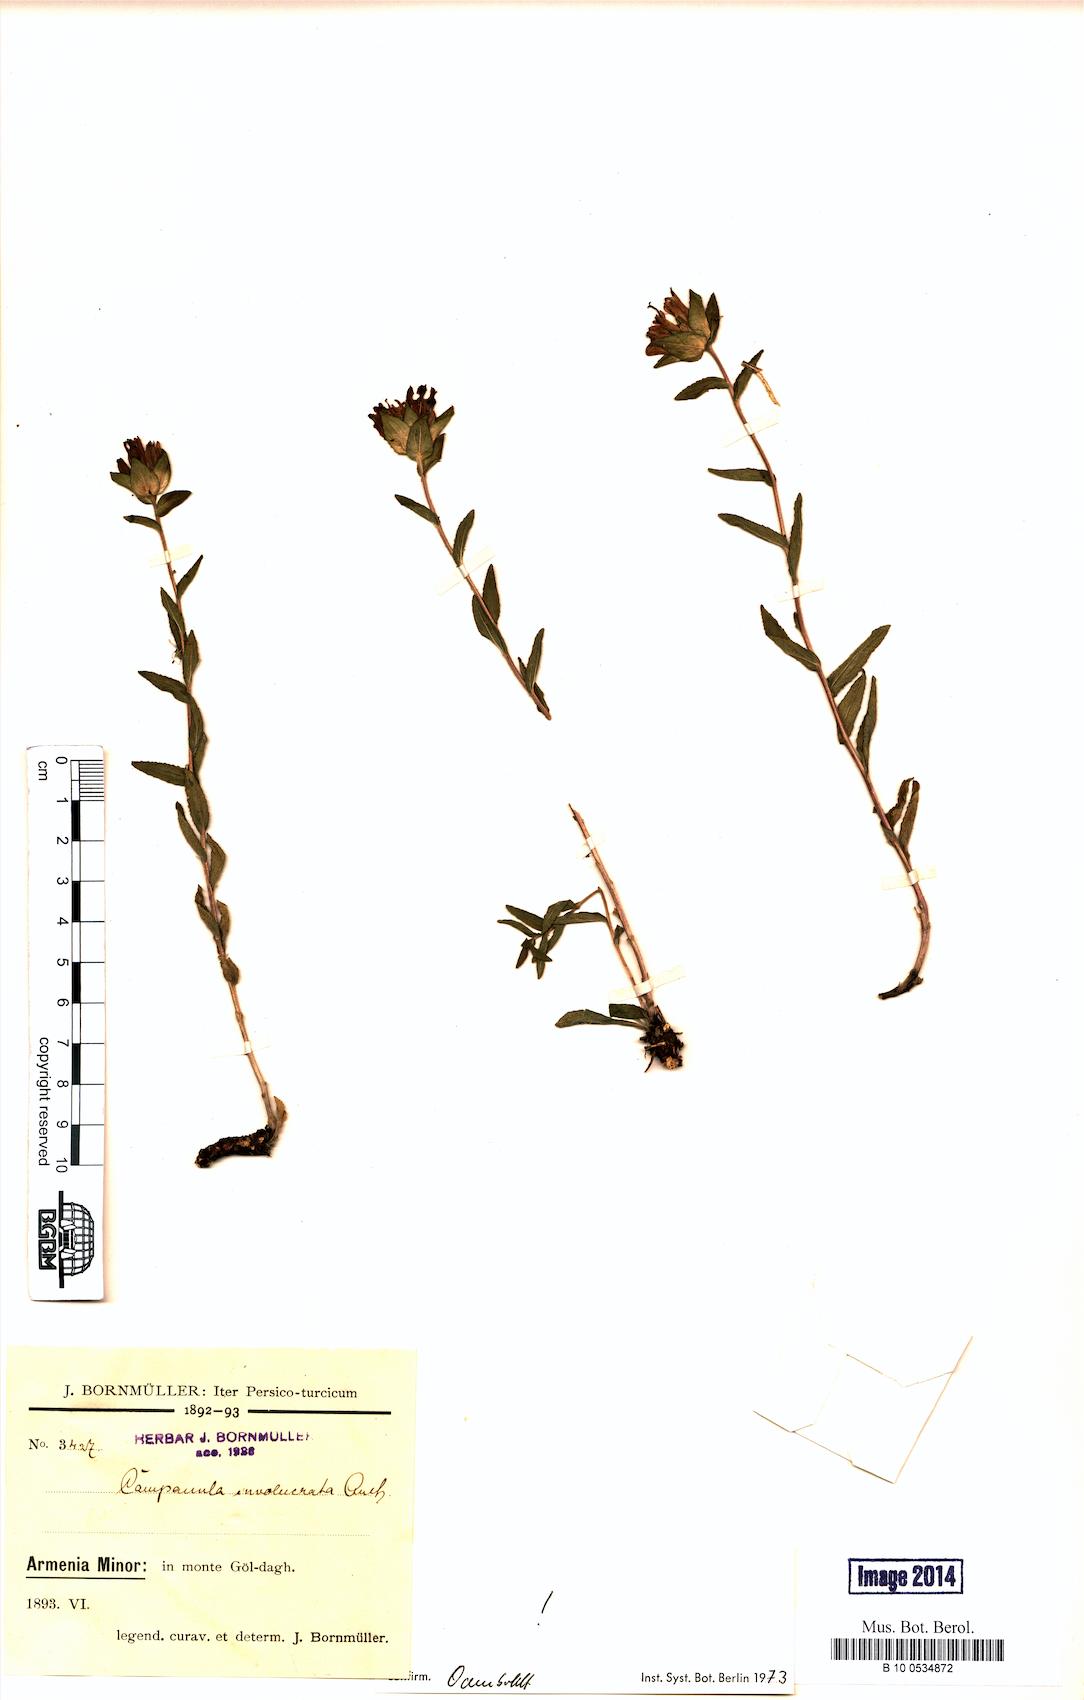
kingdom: Plantae
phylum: Tracheophyta
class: Magnoliopsida
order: Asterales
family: Campanulaceae
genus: Campanula
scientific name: Campanula involucrata
